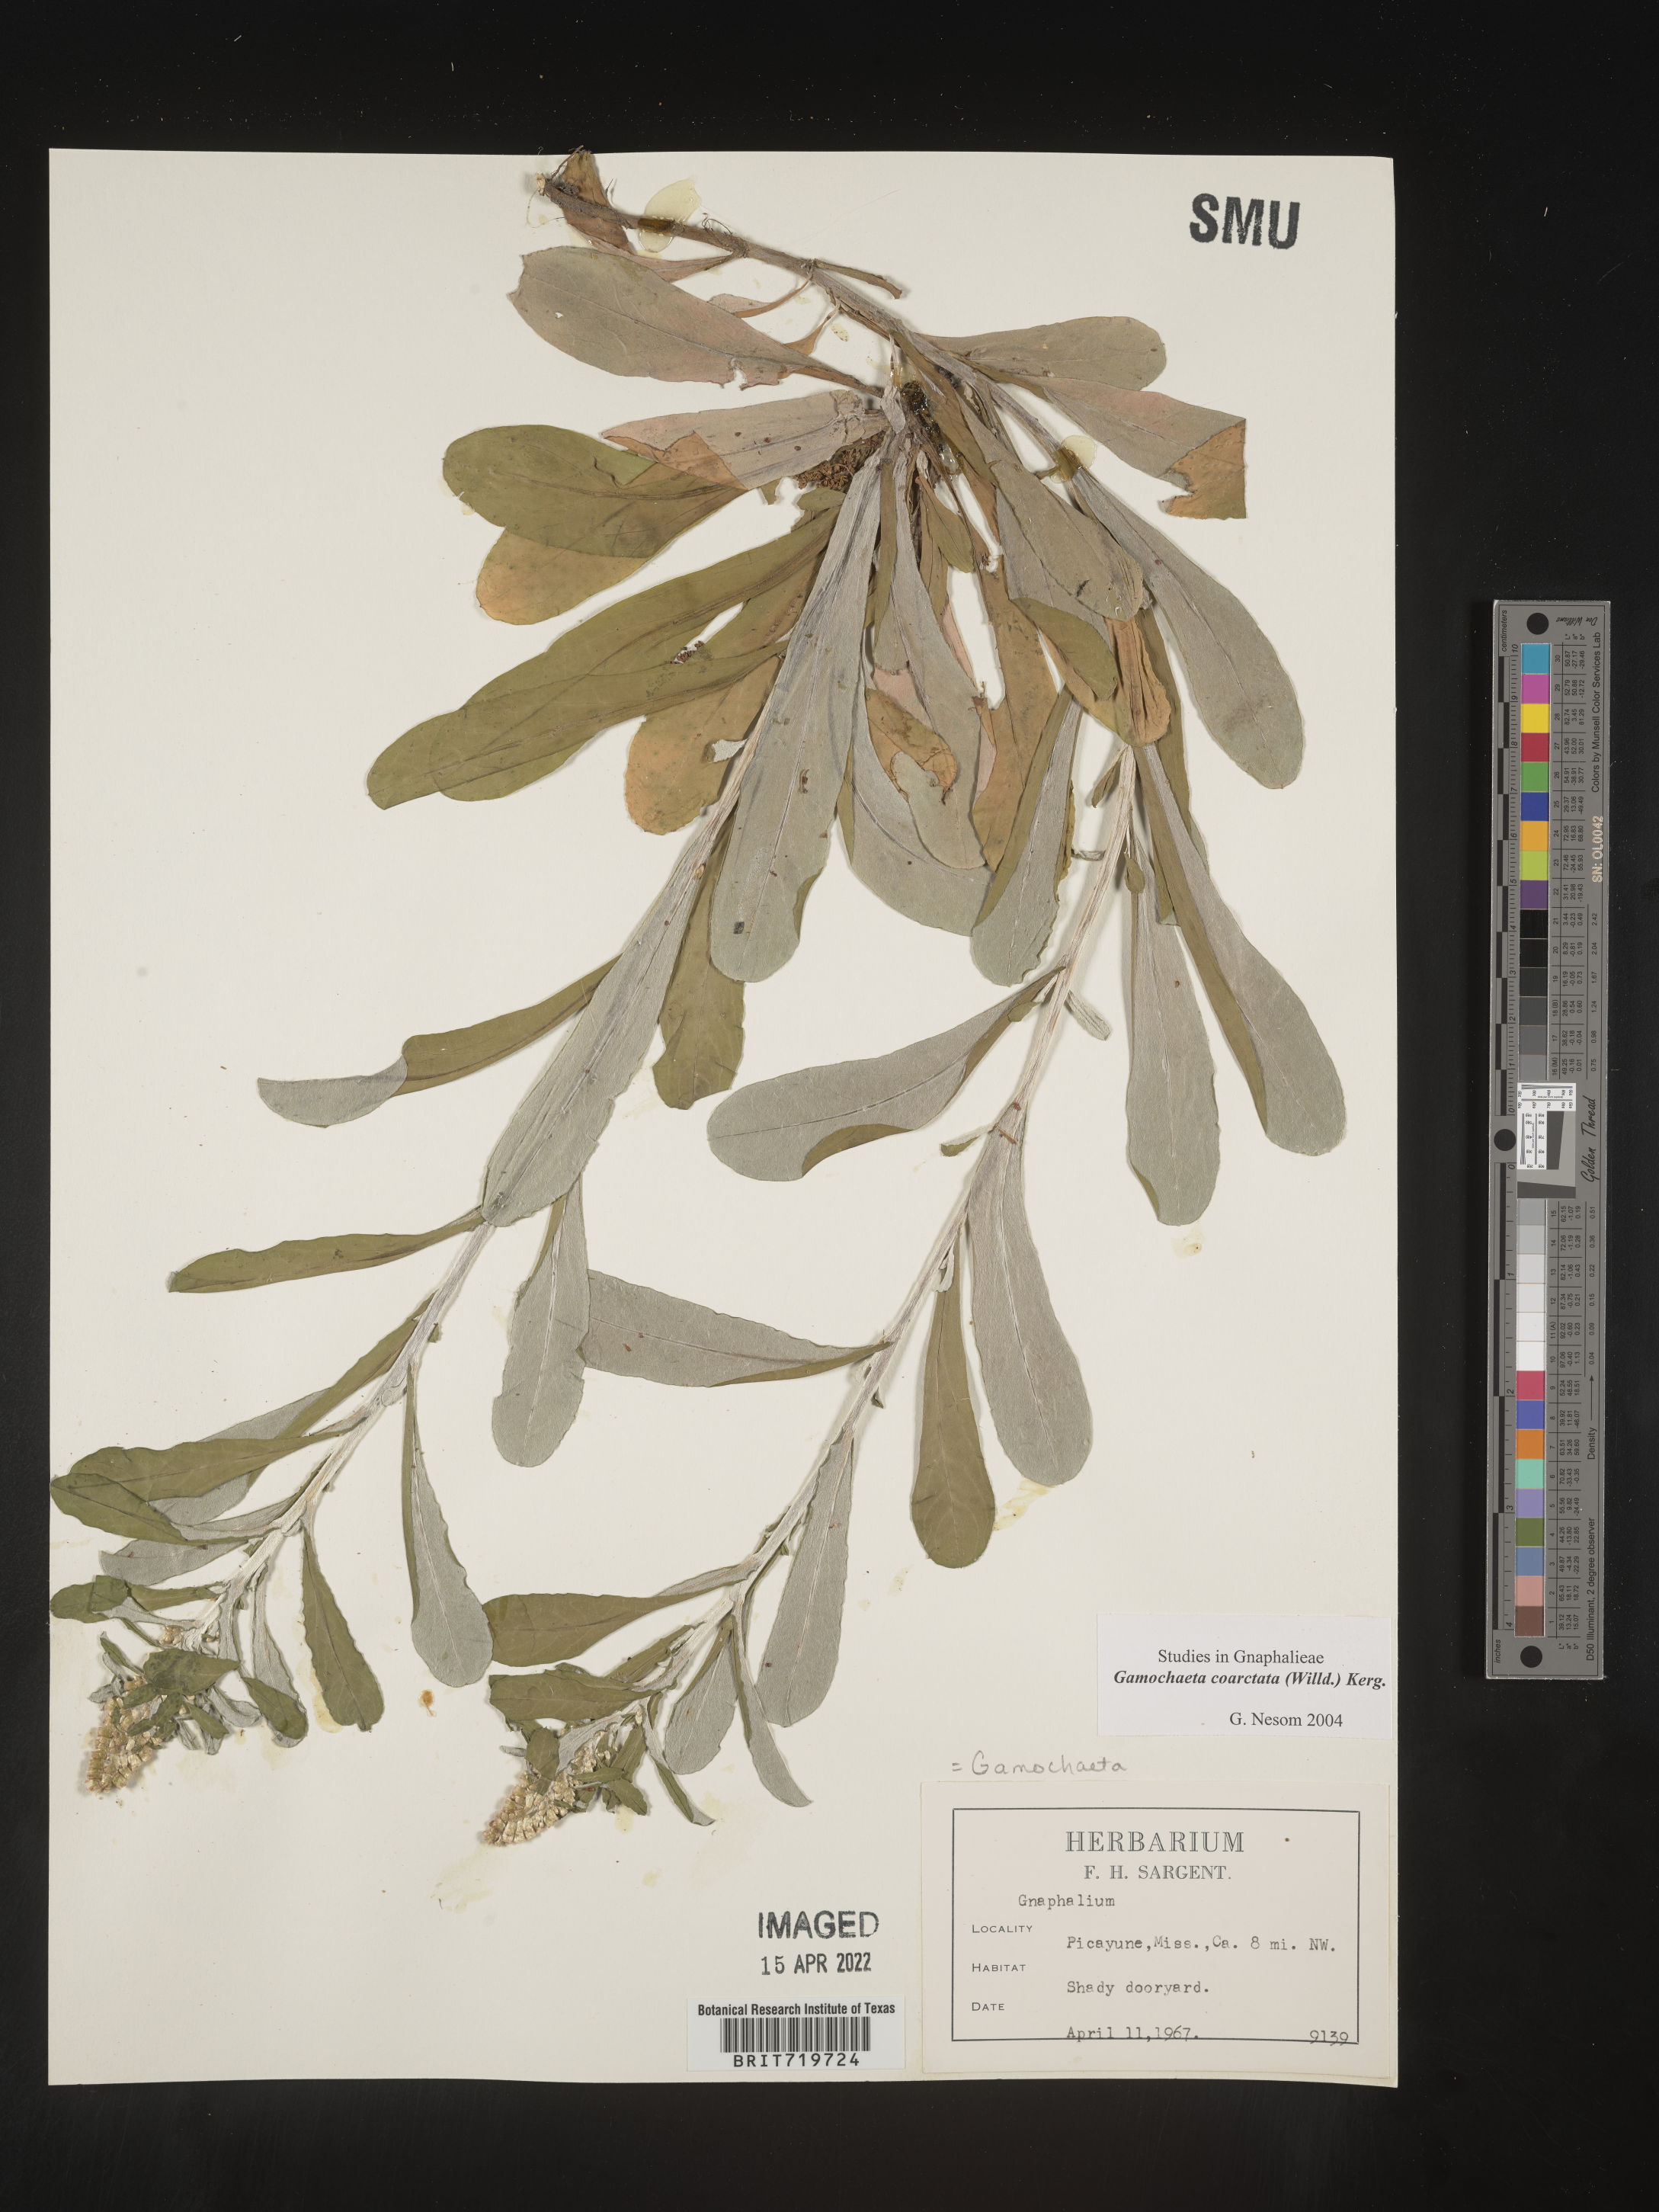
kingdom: Plantae
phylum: Tracheophyta
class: Magnoliopsida
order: Asterales
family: Asteraceae
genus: Gamochaeta
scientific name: Gamochaeta americana
